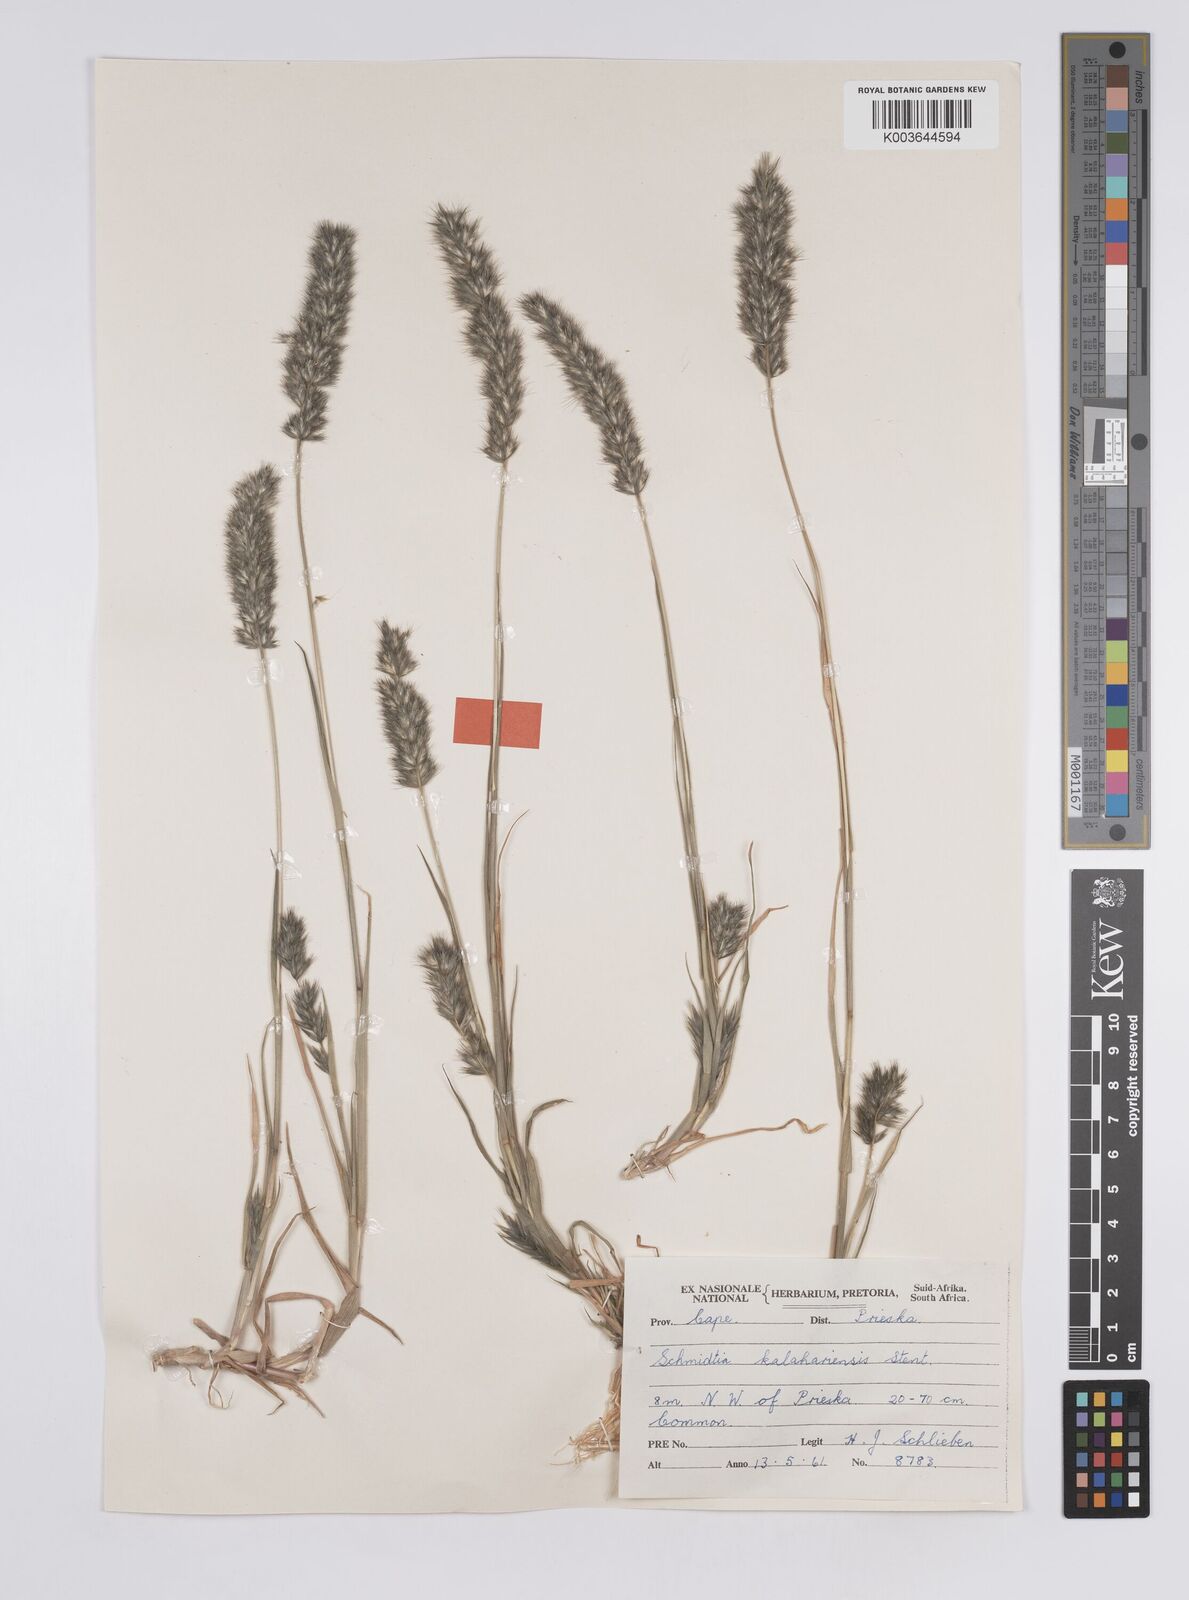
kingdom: Plantae
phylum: Tracheophyta
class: Liliopsida
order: Poales
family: Poaceae
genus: Schmidtia
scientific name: Schmidtia kalahariensis
